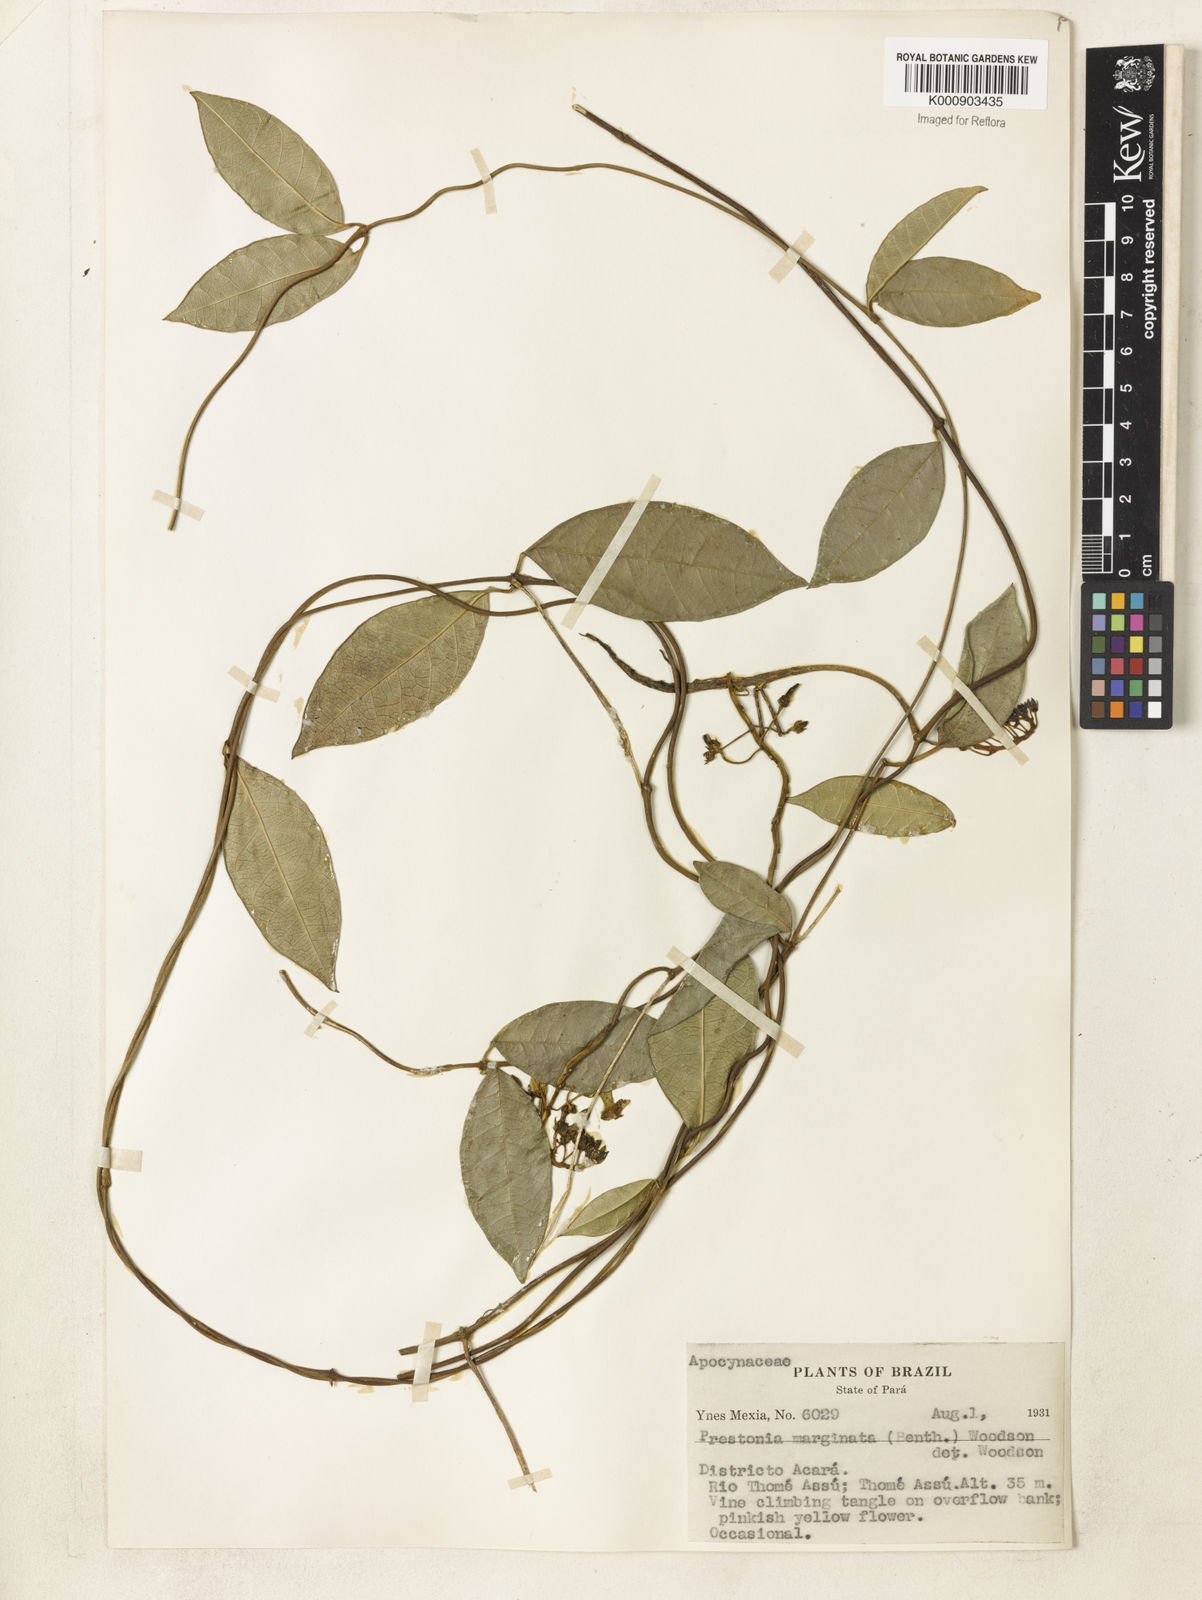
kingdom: Plantae
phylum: Tracheophyta
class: Magnoliopsida
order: Gentianales
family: Apocynaceae
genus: Prestonia
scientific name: Prestonia cayennensis
